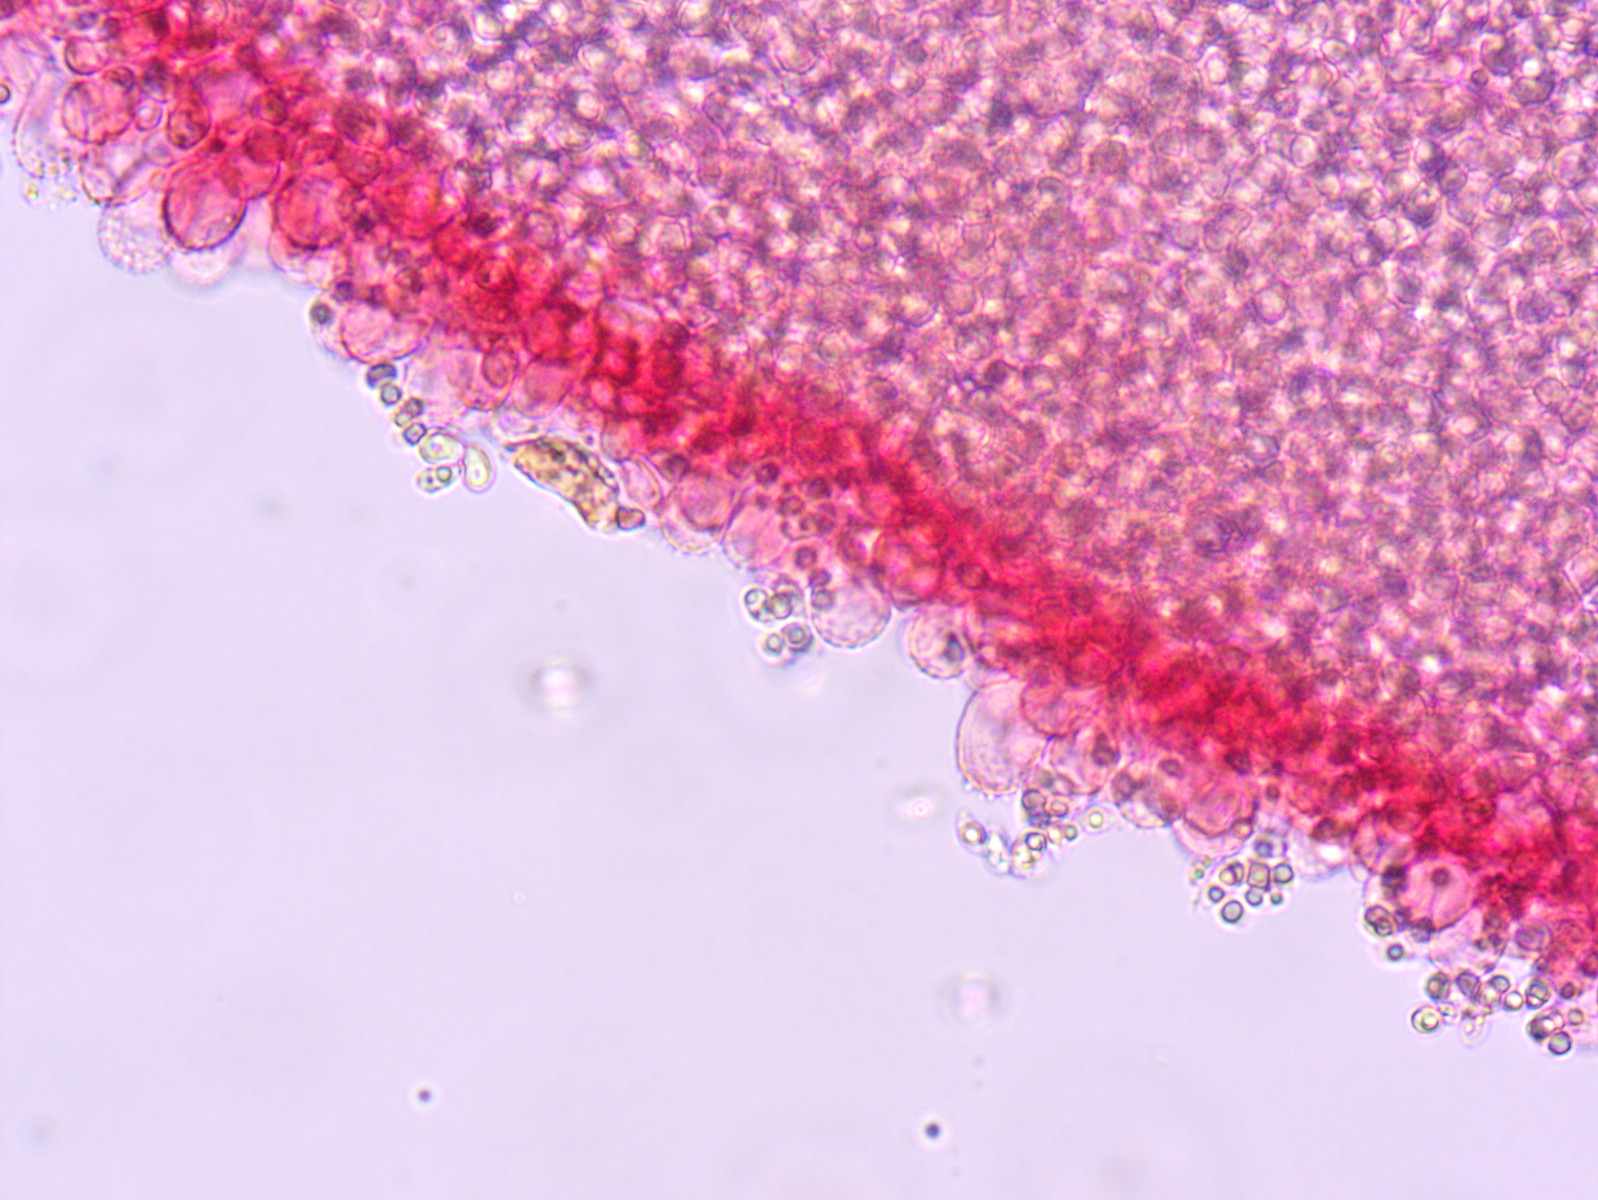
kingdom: Fungi
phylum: Basidiomycota
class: Agaricomycetes
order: Agaricales
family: Mycenaceae
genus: Mycena
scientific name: Mycena filopes
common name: jod-huesvamp
